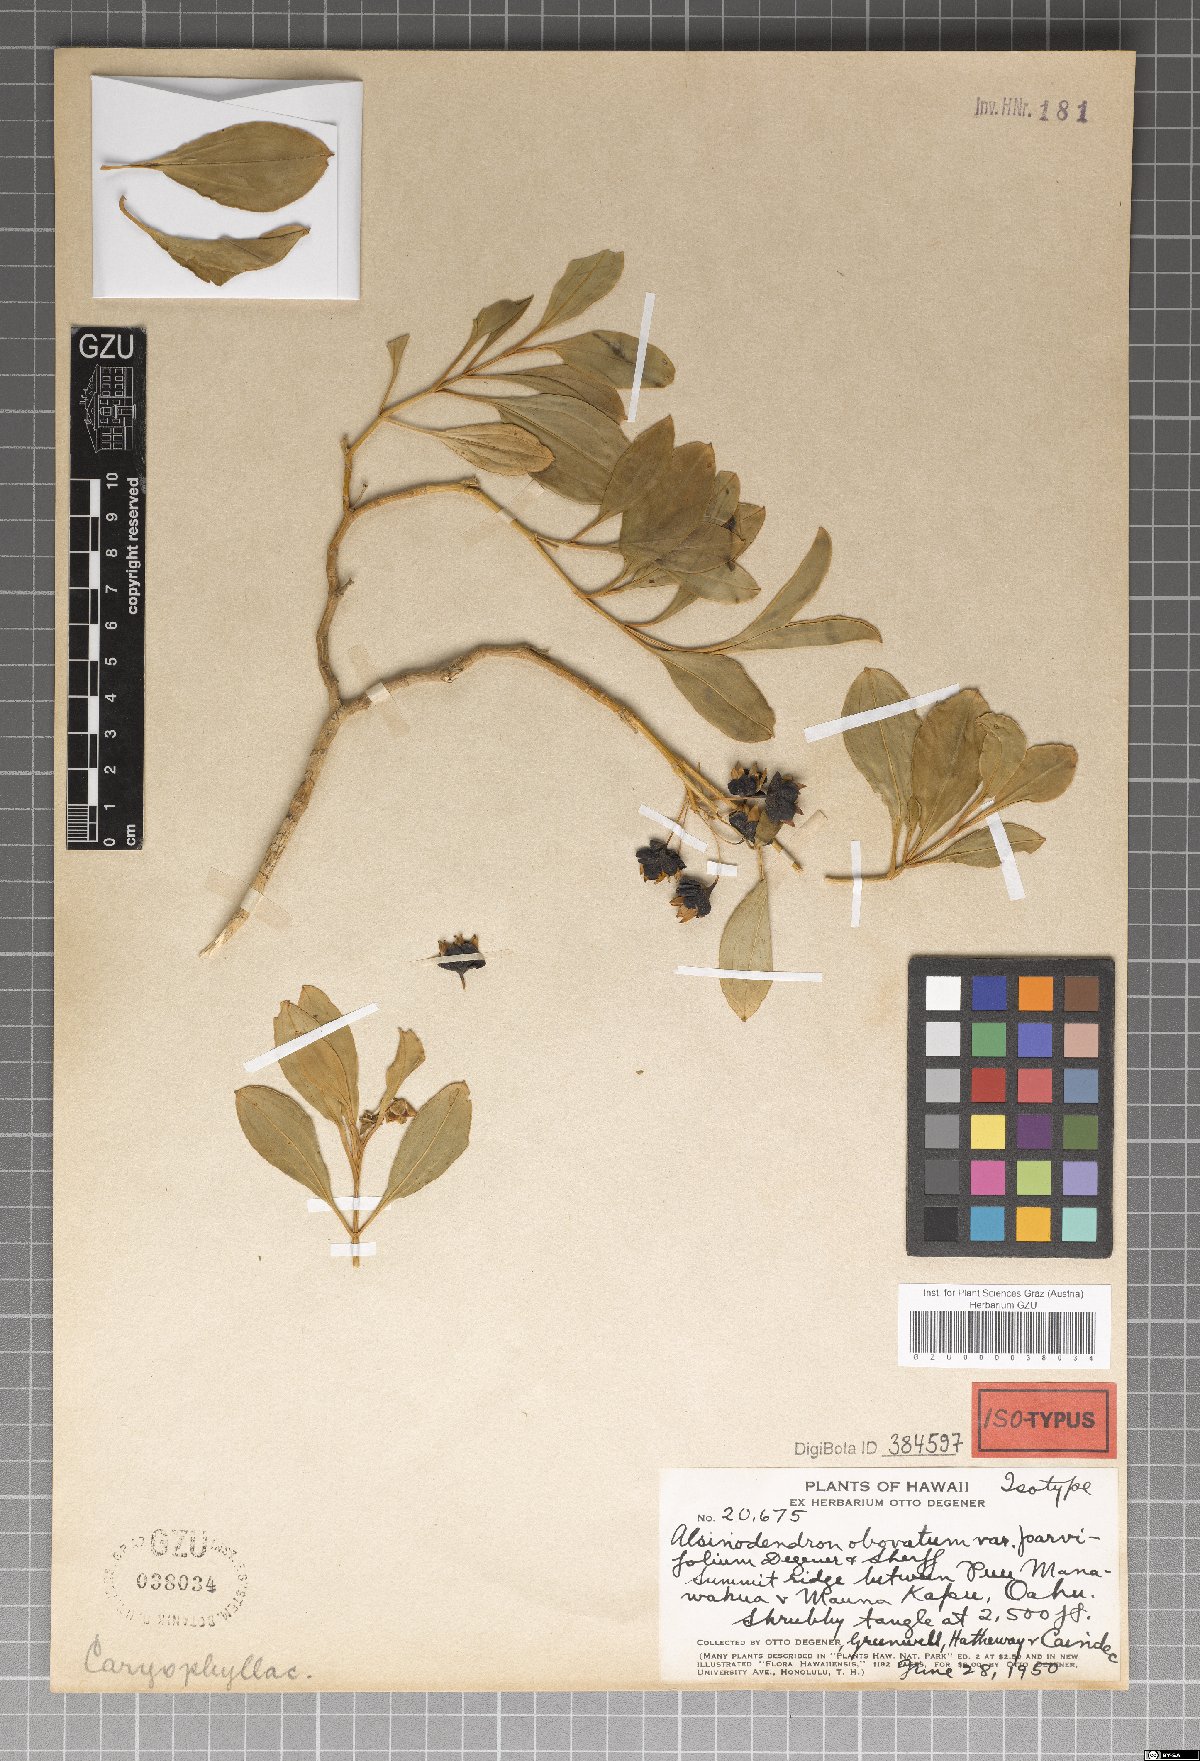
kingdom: Plantae
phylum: Tracheophyta
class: Magnoliopsida
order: Caryophyllales
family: Caryophyllaceae
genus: Schiedea
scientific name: Schiedea obovata
